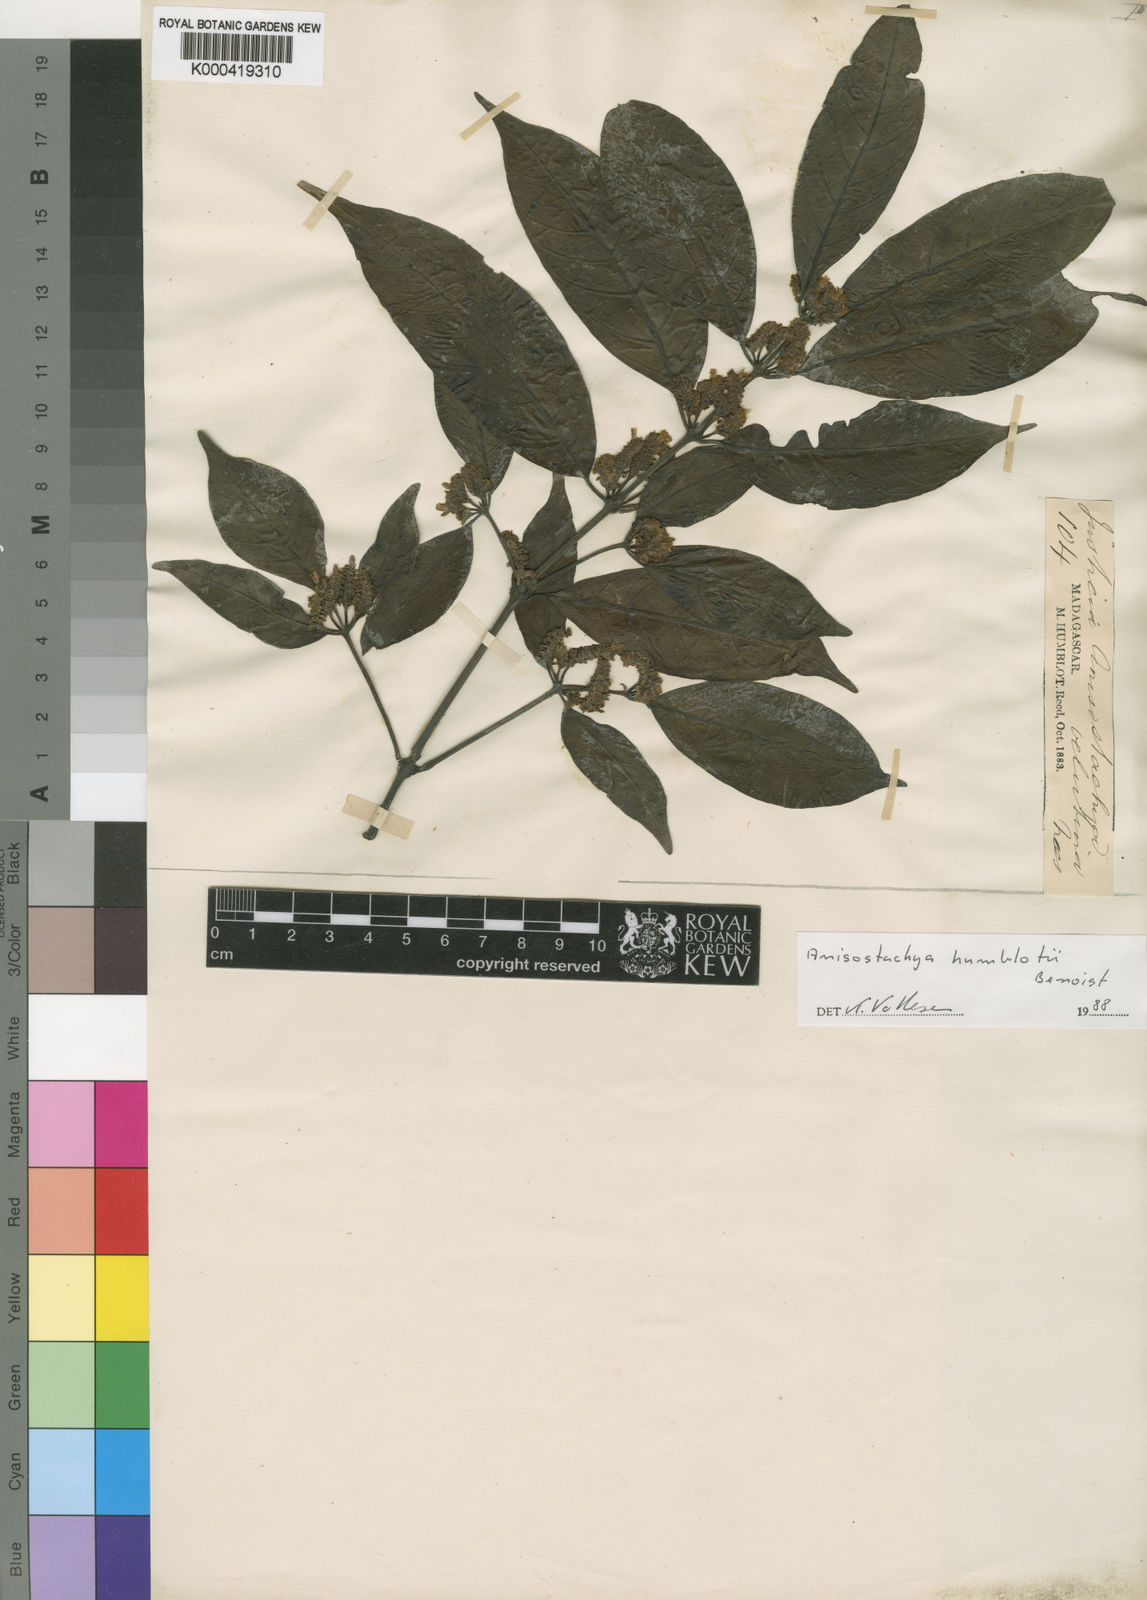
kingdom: Plantae
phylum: Tracheophyta
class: Magnoliopsida
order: Lamiales
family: Acanthaceae
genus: Justicia
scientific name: Justicia humblotii
